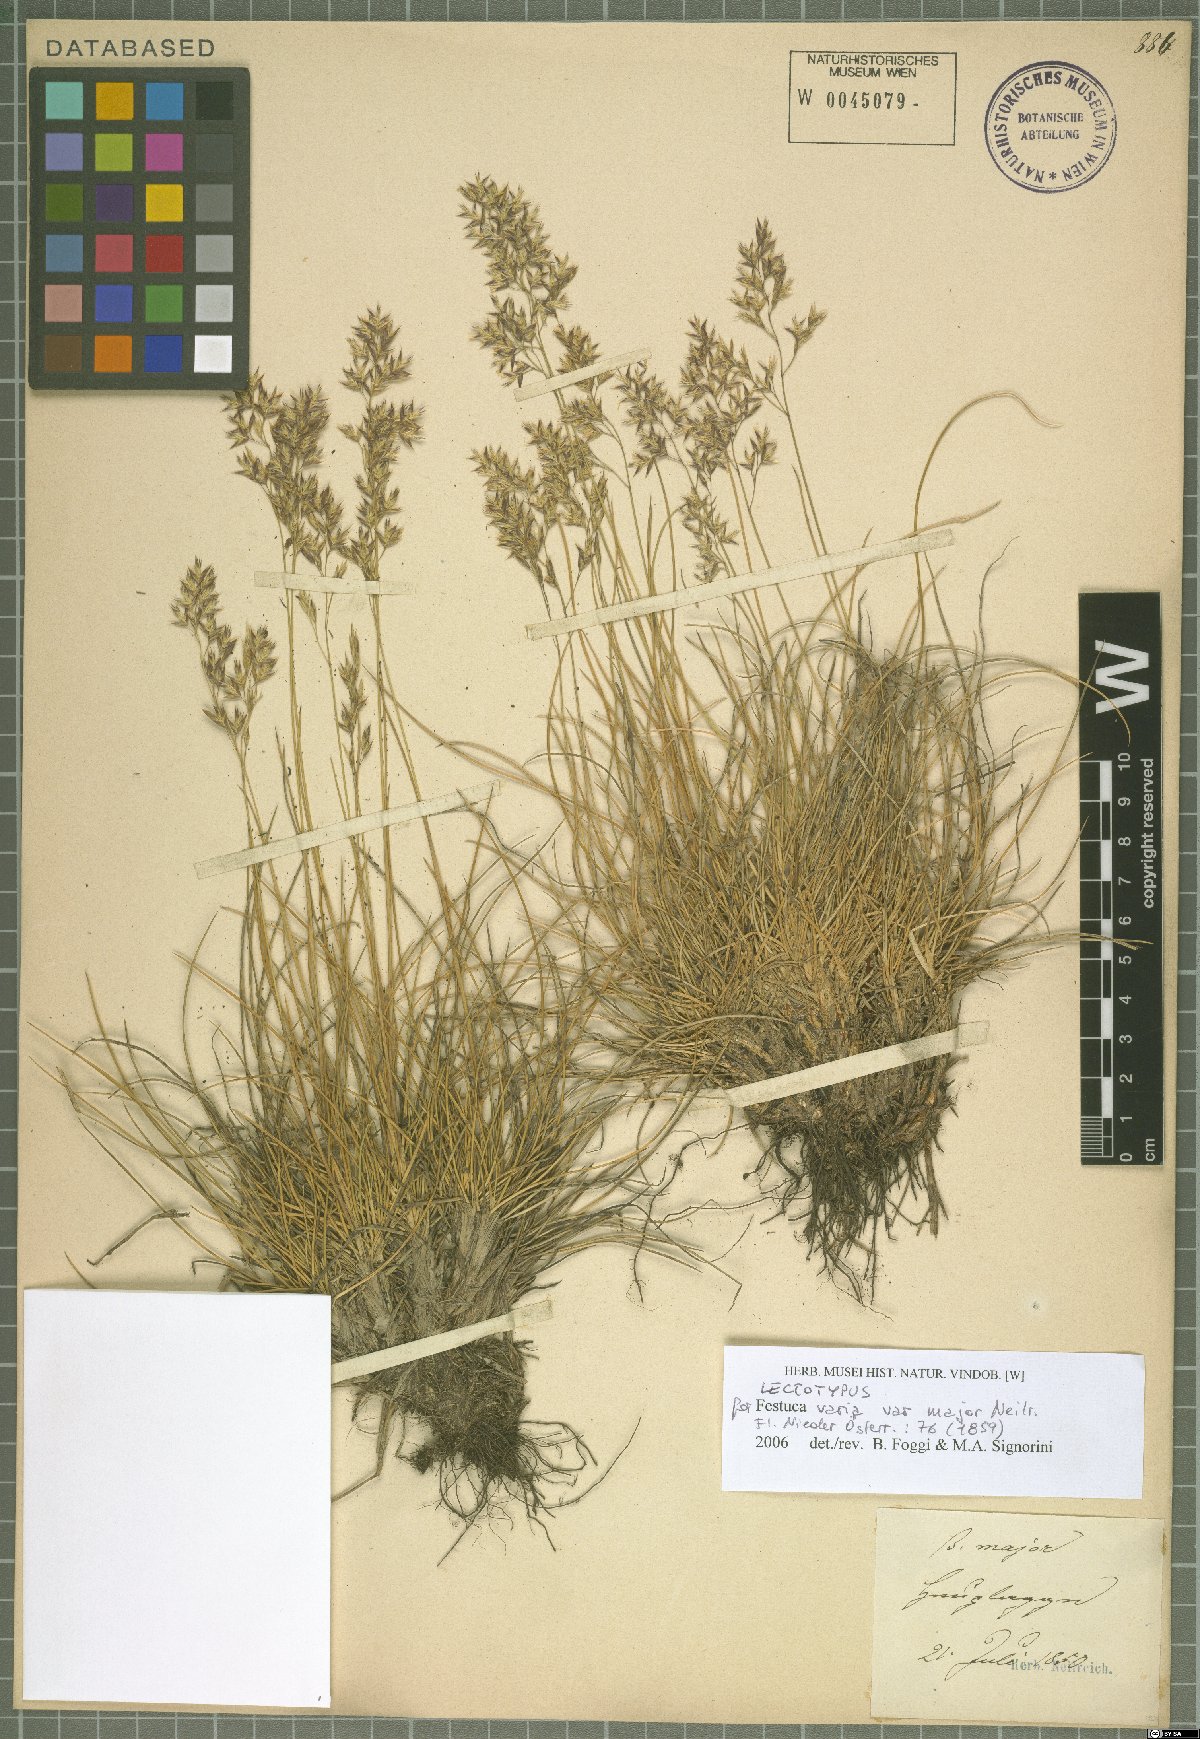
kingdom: Plantae
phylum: Tracheophyta
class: Liliopsida
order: Poales
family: Poaceae
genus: Festuca
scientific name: Festuca varia
